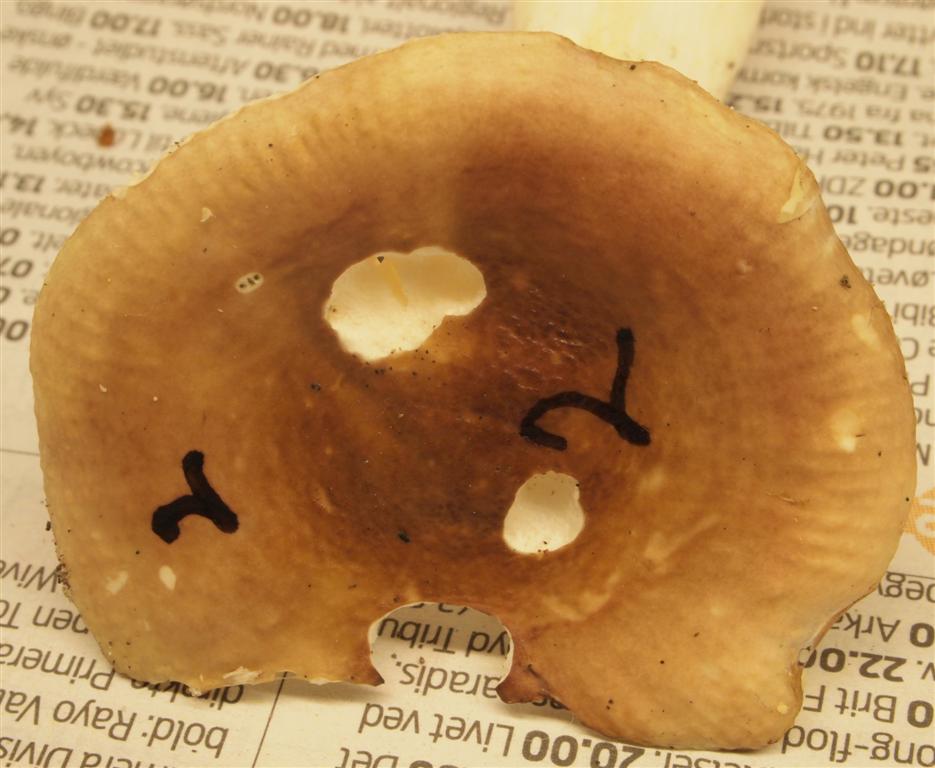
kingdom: Fungi
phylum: Basidiomycota
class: Agaricomycetes
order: Russulales
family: Russulaceae
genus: Russula
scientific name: Russula
